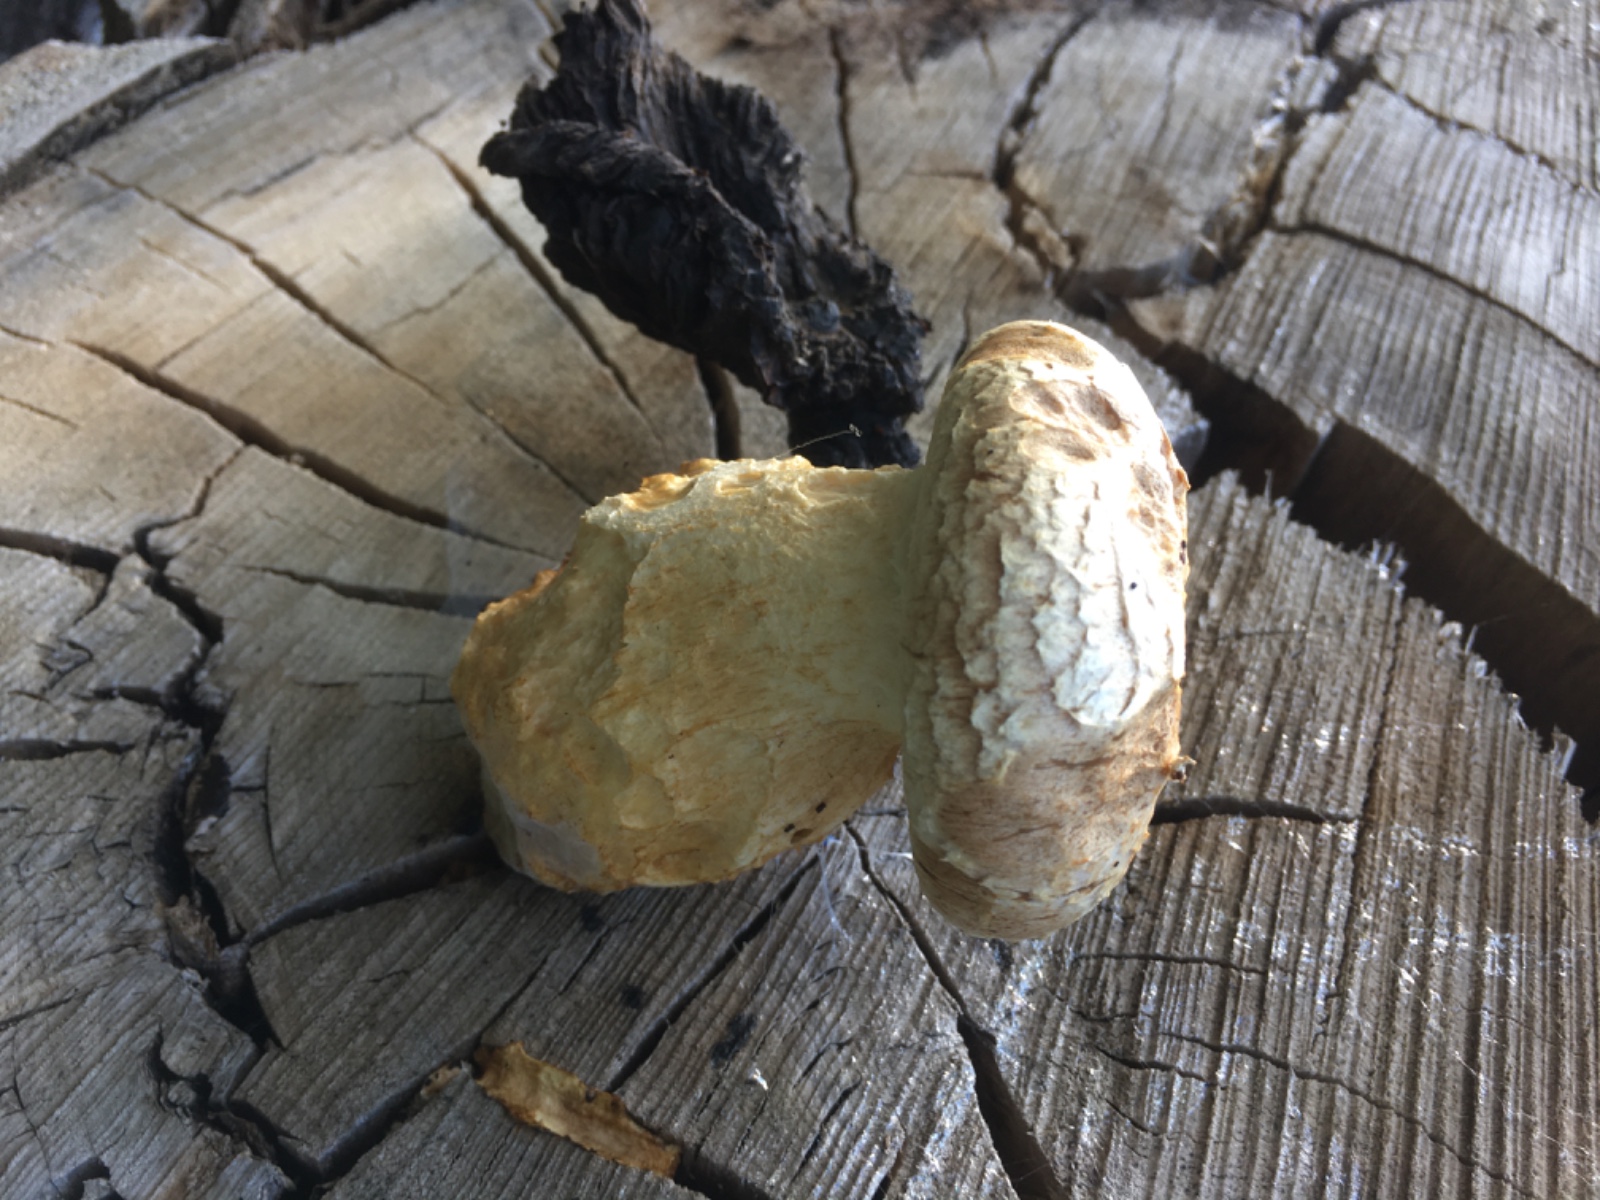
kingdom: Fungi
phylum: Basidiomycota
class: Agaricomycetes
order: Agaricales
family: Strophariaceae
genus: Pholiota
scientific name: Pholiota populnea
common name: poppel-kæmpeskælhat
